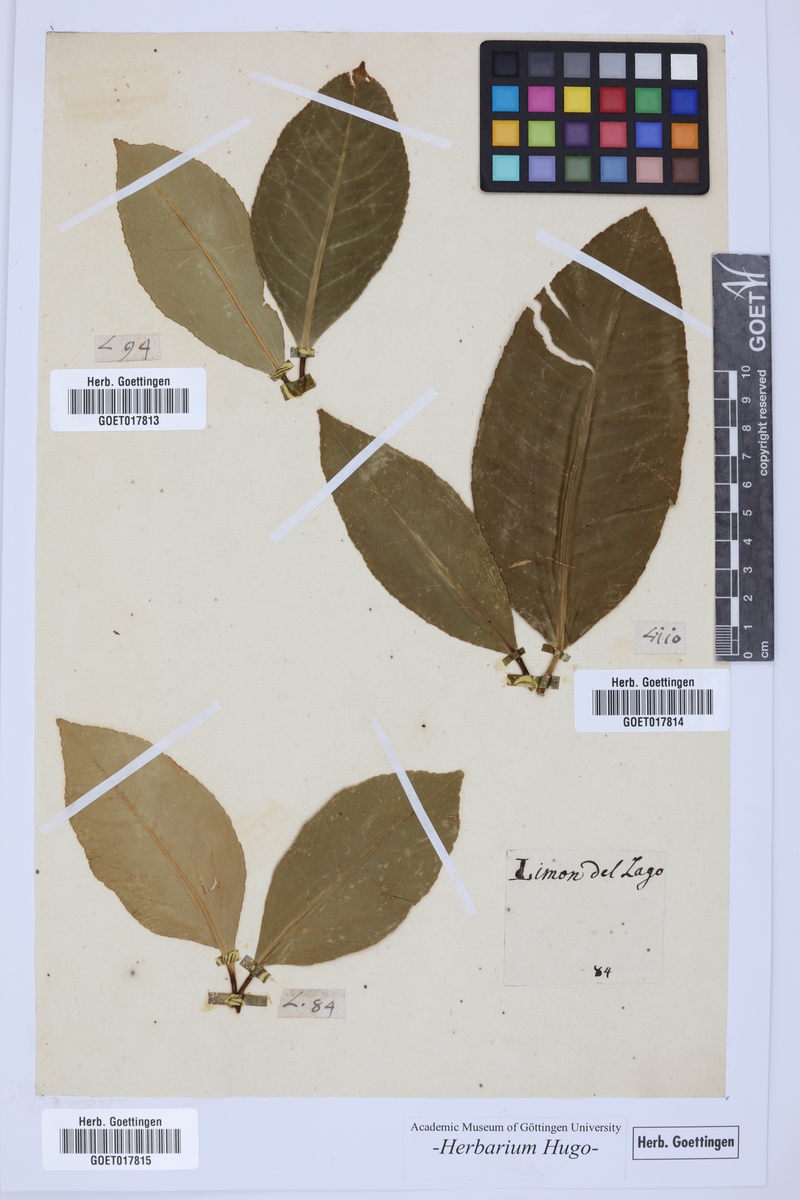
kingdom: Plantae
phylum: Tracheophyta
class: Magnoliopsida
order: Sapindales
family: Rutaceae
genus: Citrus
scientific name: Citrus
